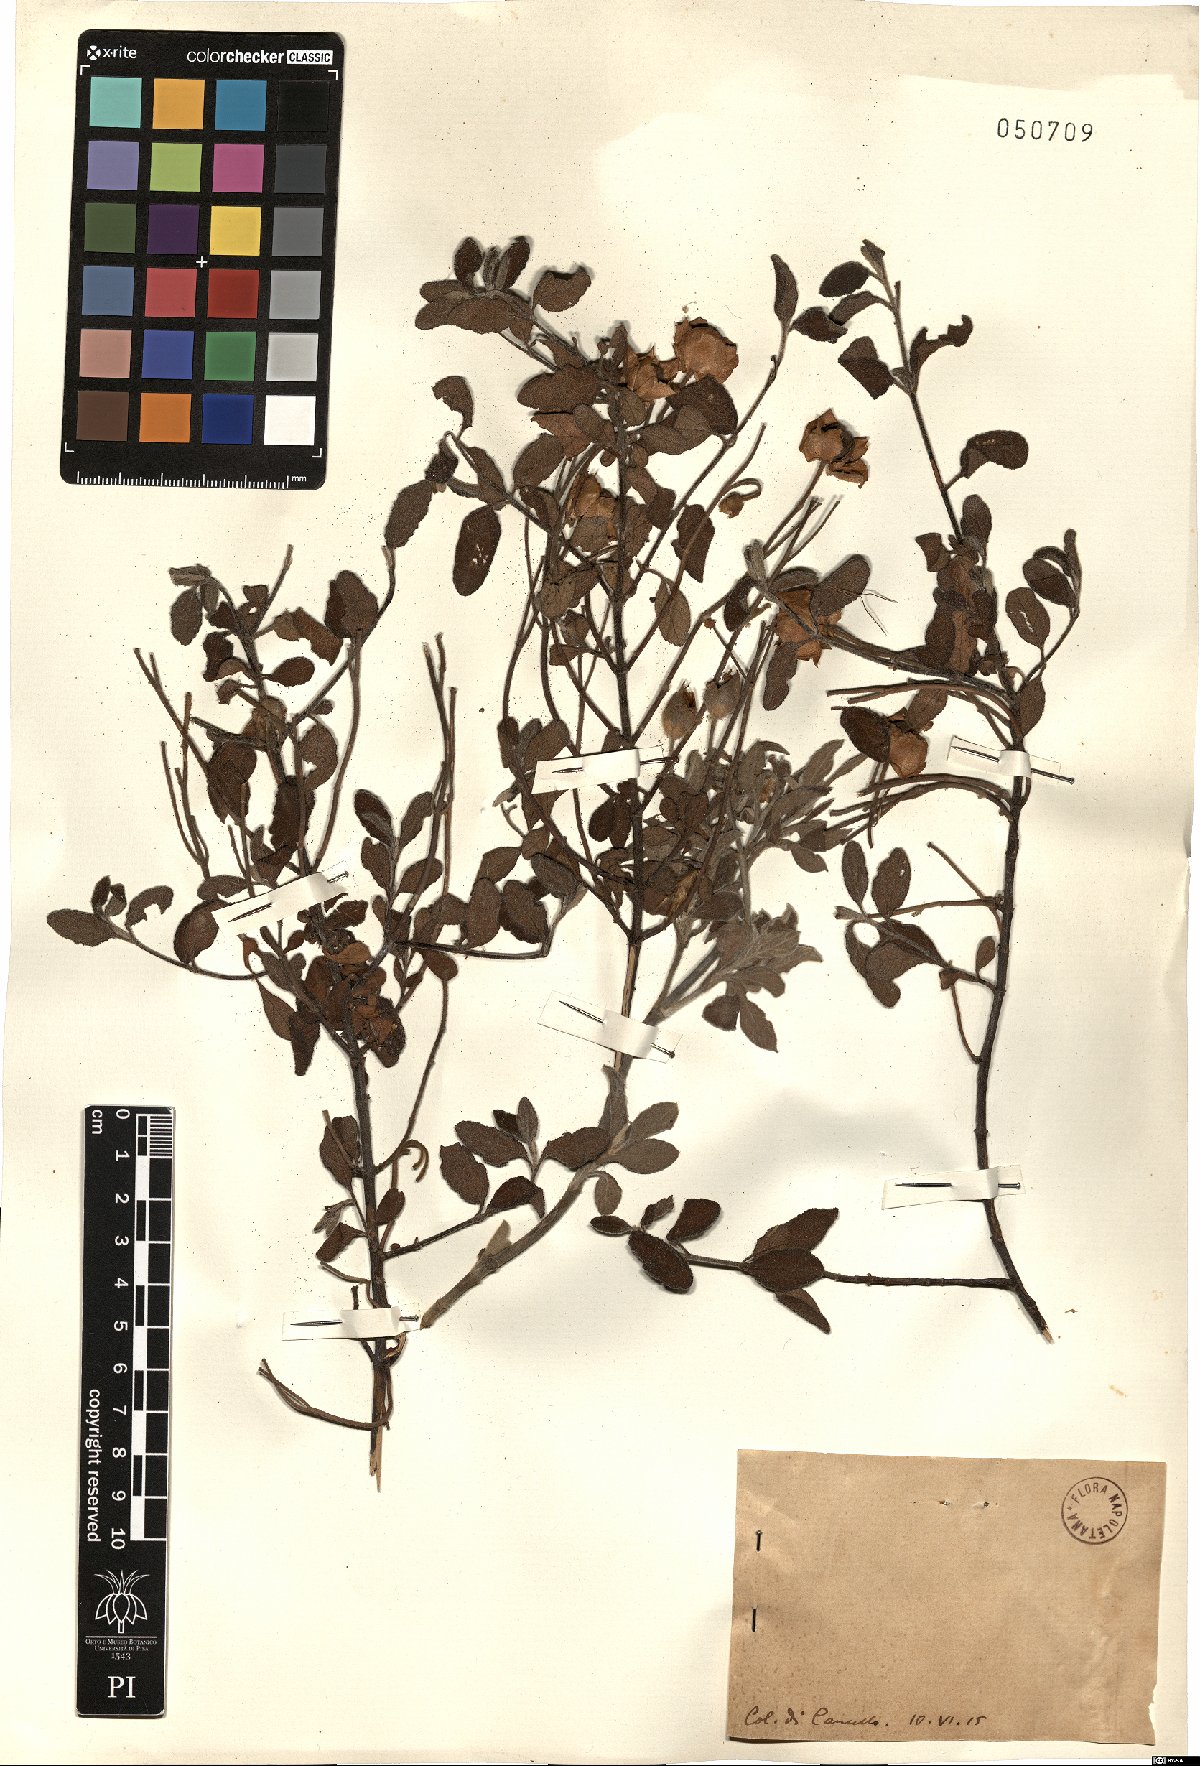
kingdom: Plantae
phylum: Tracheophyta
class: Magnoliopsida
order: Malvales
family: Cistaceae
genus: Cistus
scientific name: Cistus
